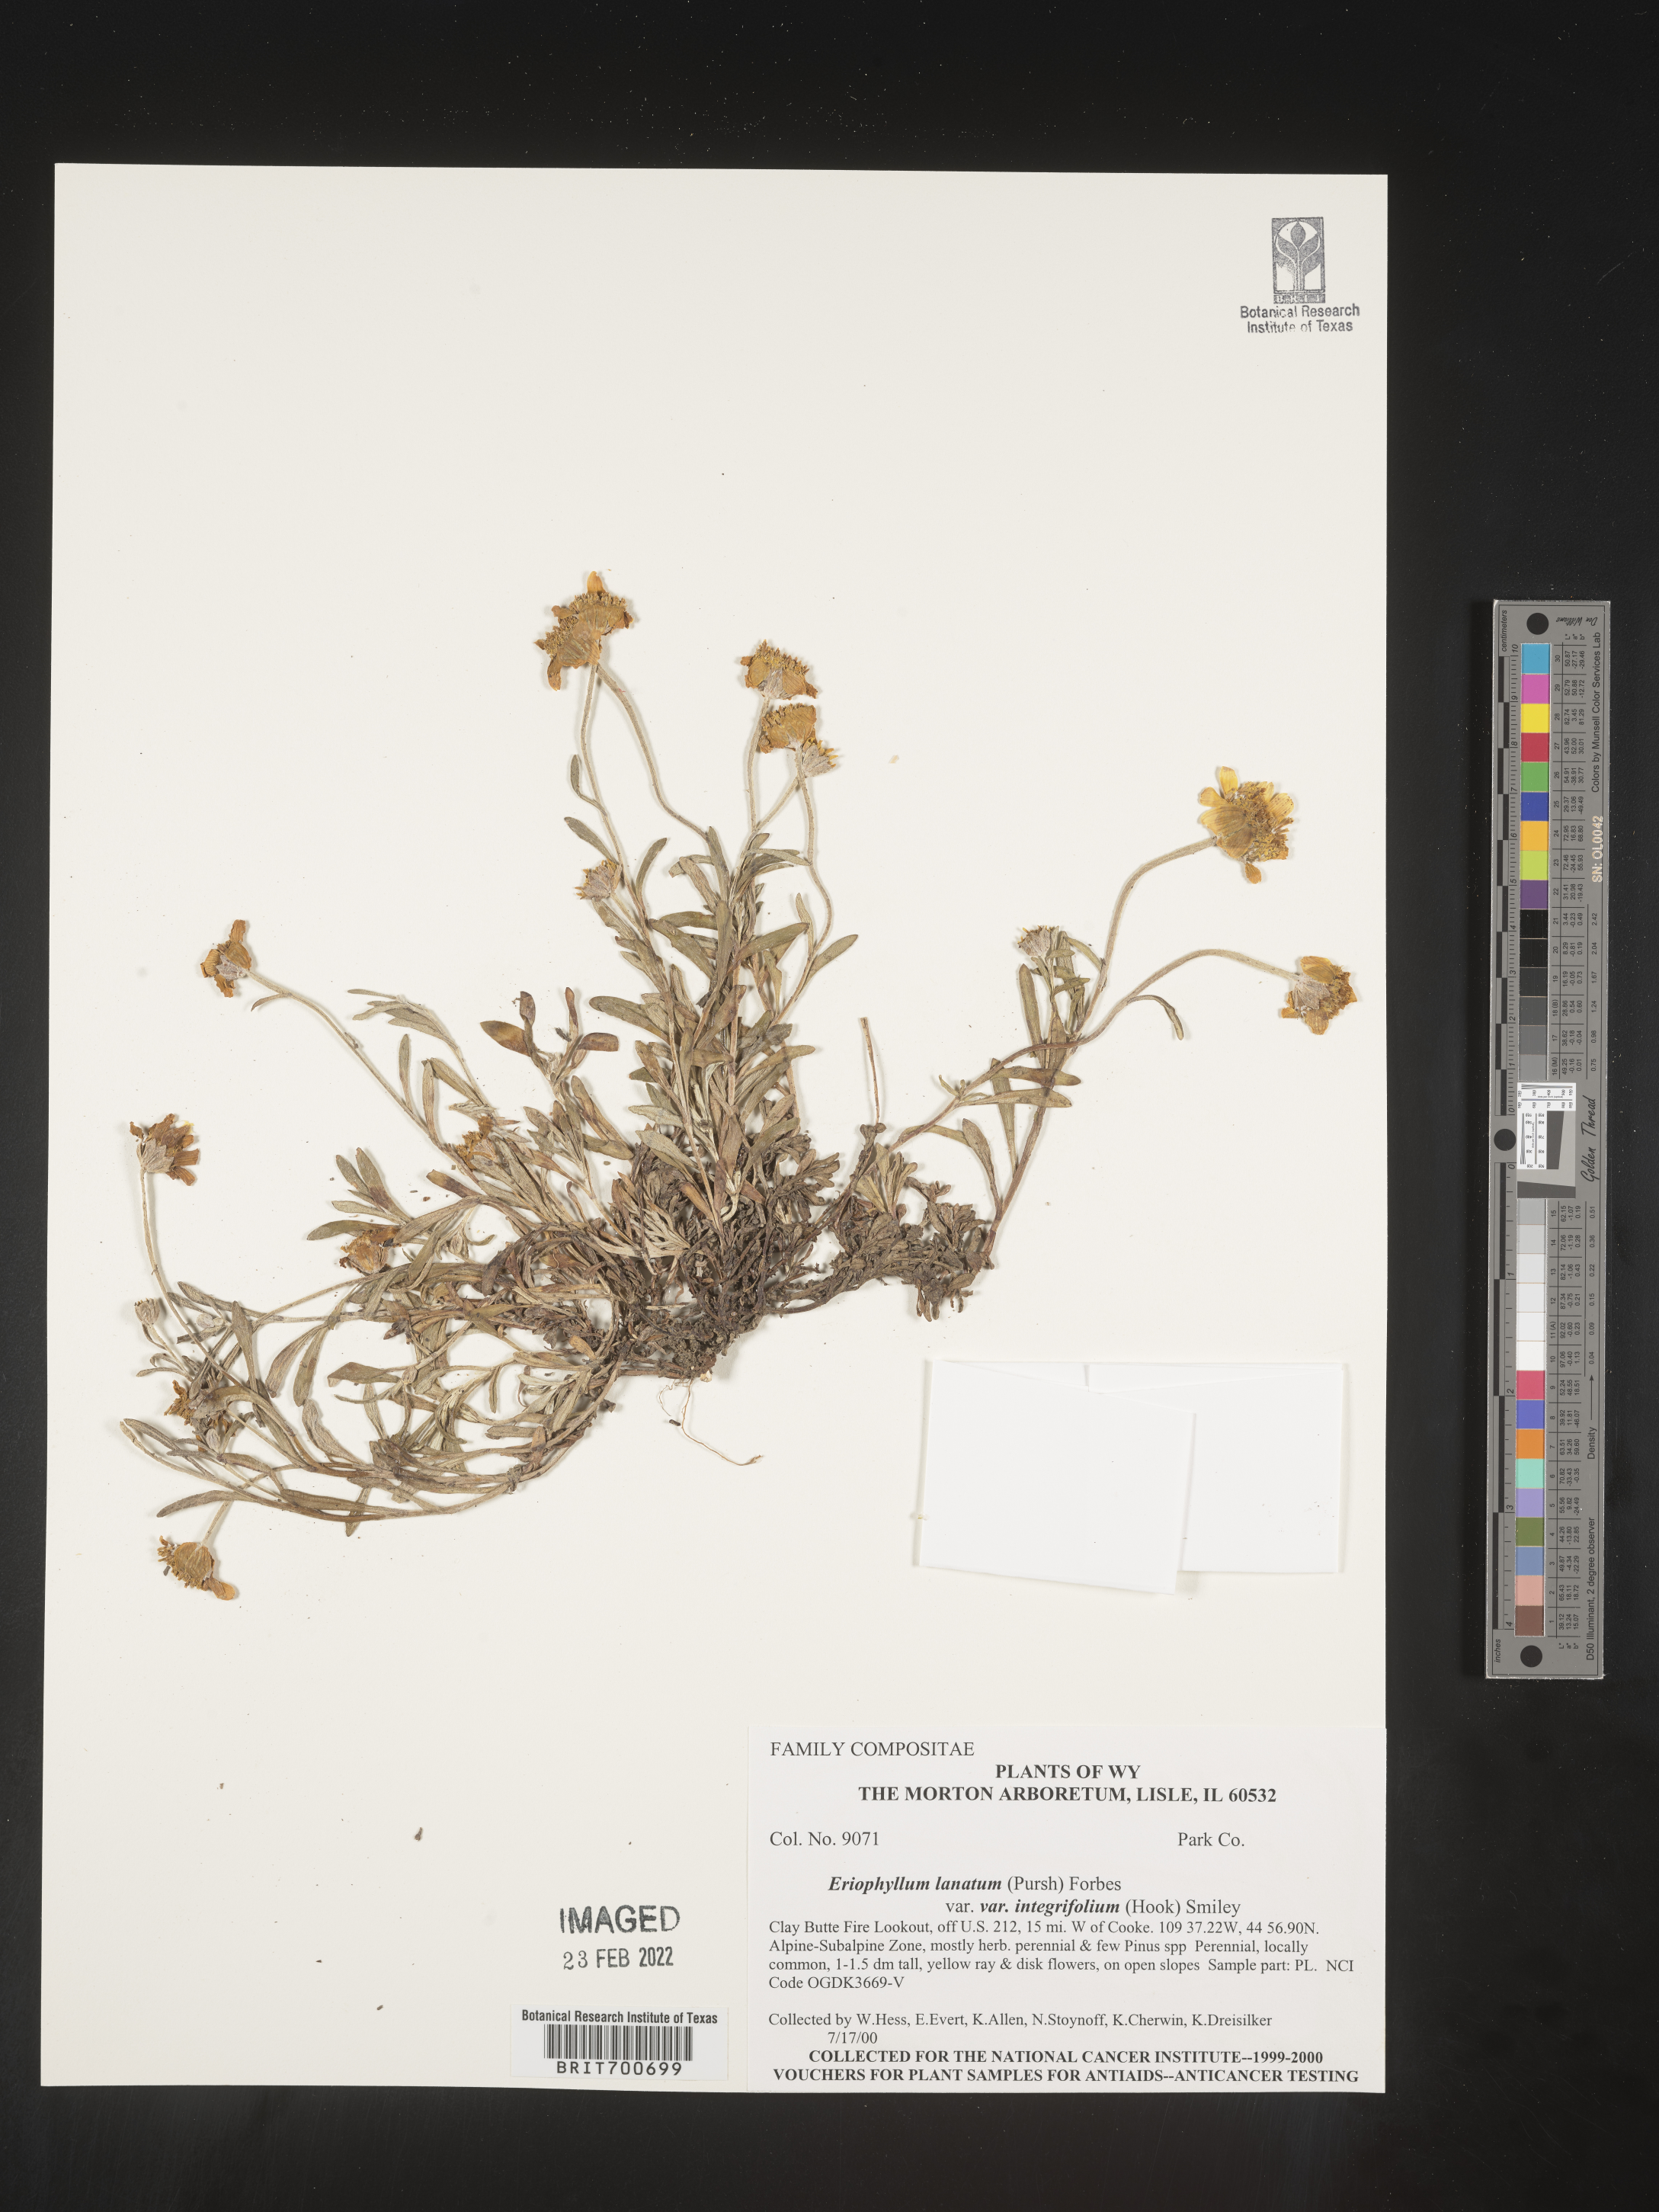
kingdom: Plantae
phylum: Tracheophyta
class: Magnoliopsida
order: Asterales
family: Asteraceae
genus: Eriophyllum
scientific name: Eriophyllum lanatum
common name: Common woolly-sunflower
